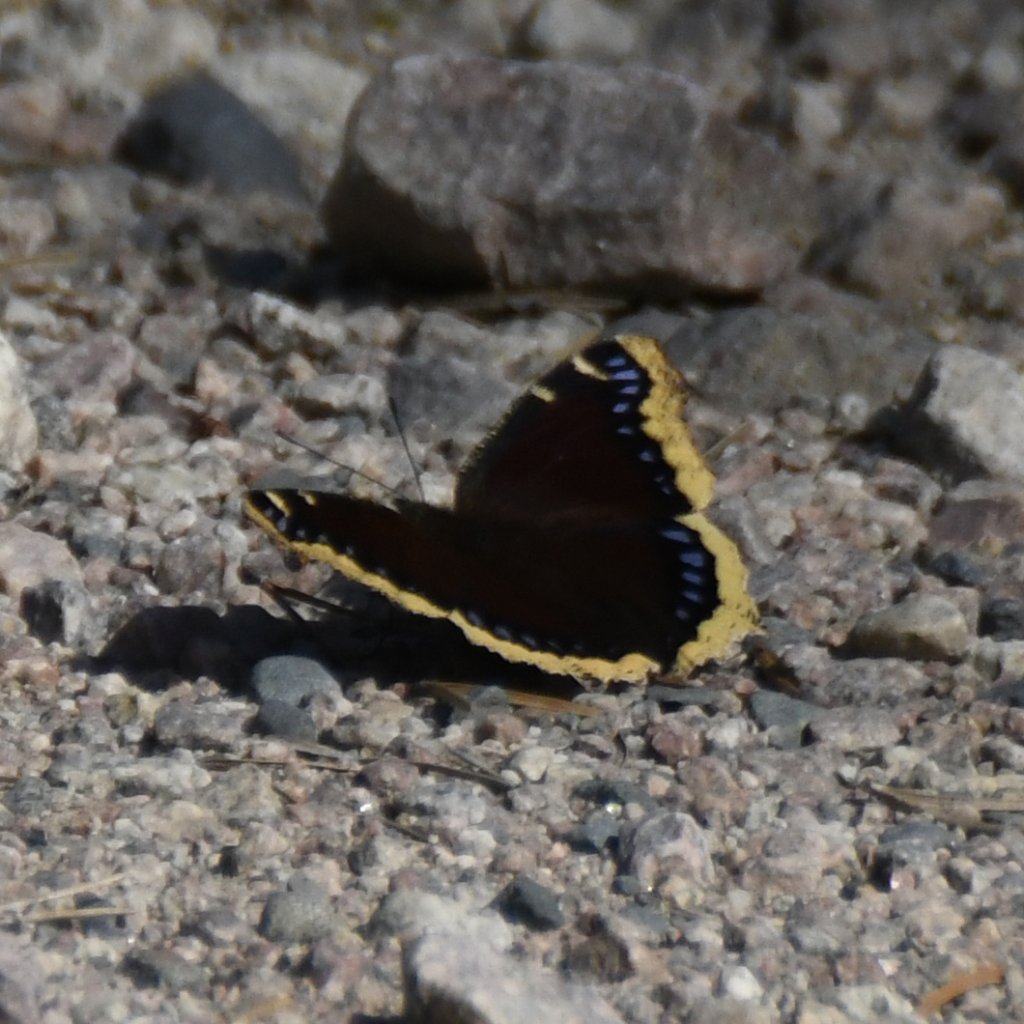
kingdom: Animalia
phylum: Arthropoda
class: Insecta
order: Lepidoptera
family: Nymphalidae
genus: Nymphalis
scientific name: Nymphalis antiopa
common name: Mourning Cloak
